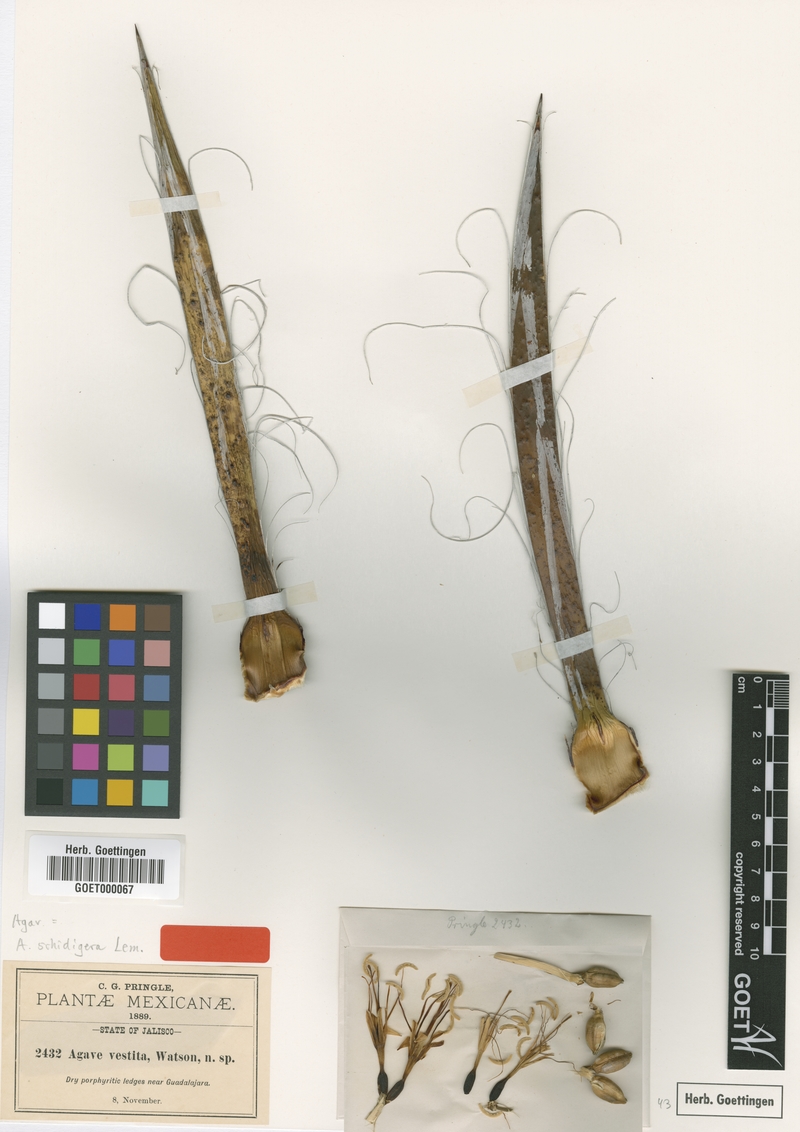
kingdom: Plantae
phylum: Tracheophyta
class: Liliopsida
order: Asparagales
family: Asparagaceae
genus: Agave
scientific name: Agave schidigera
